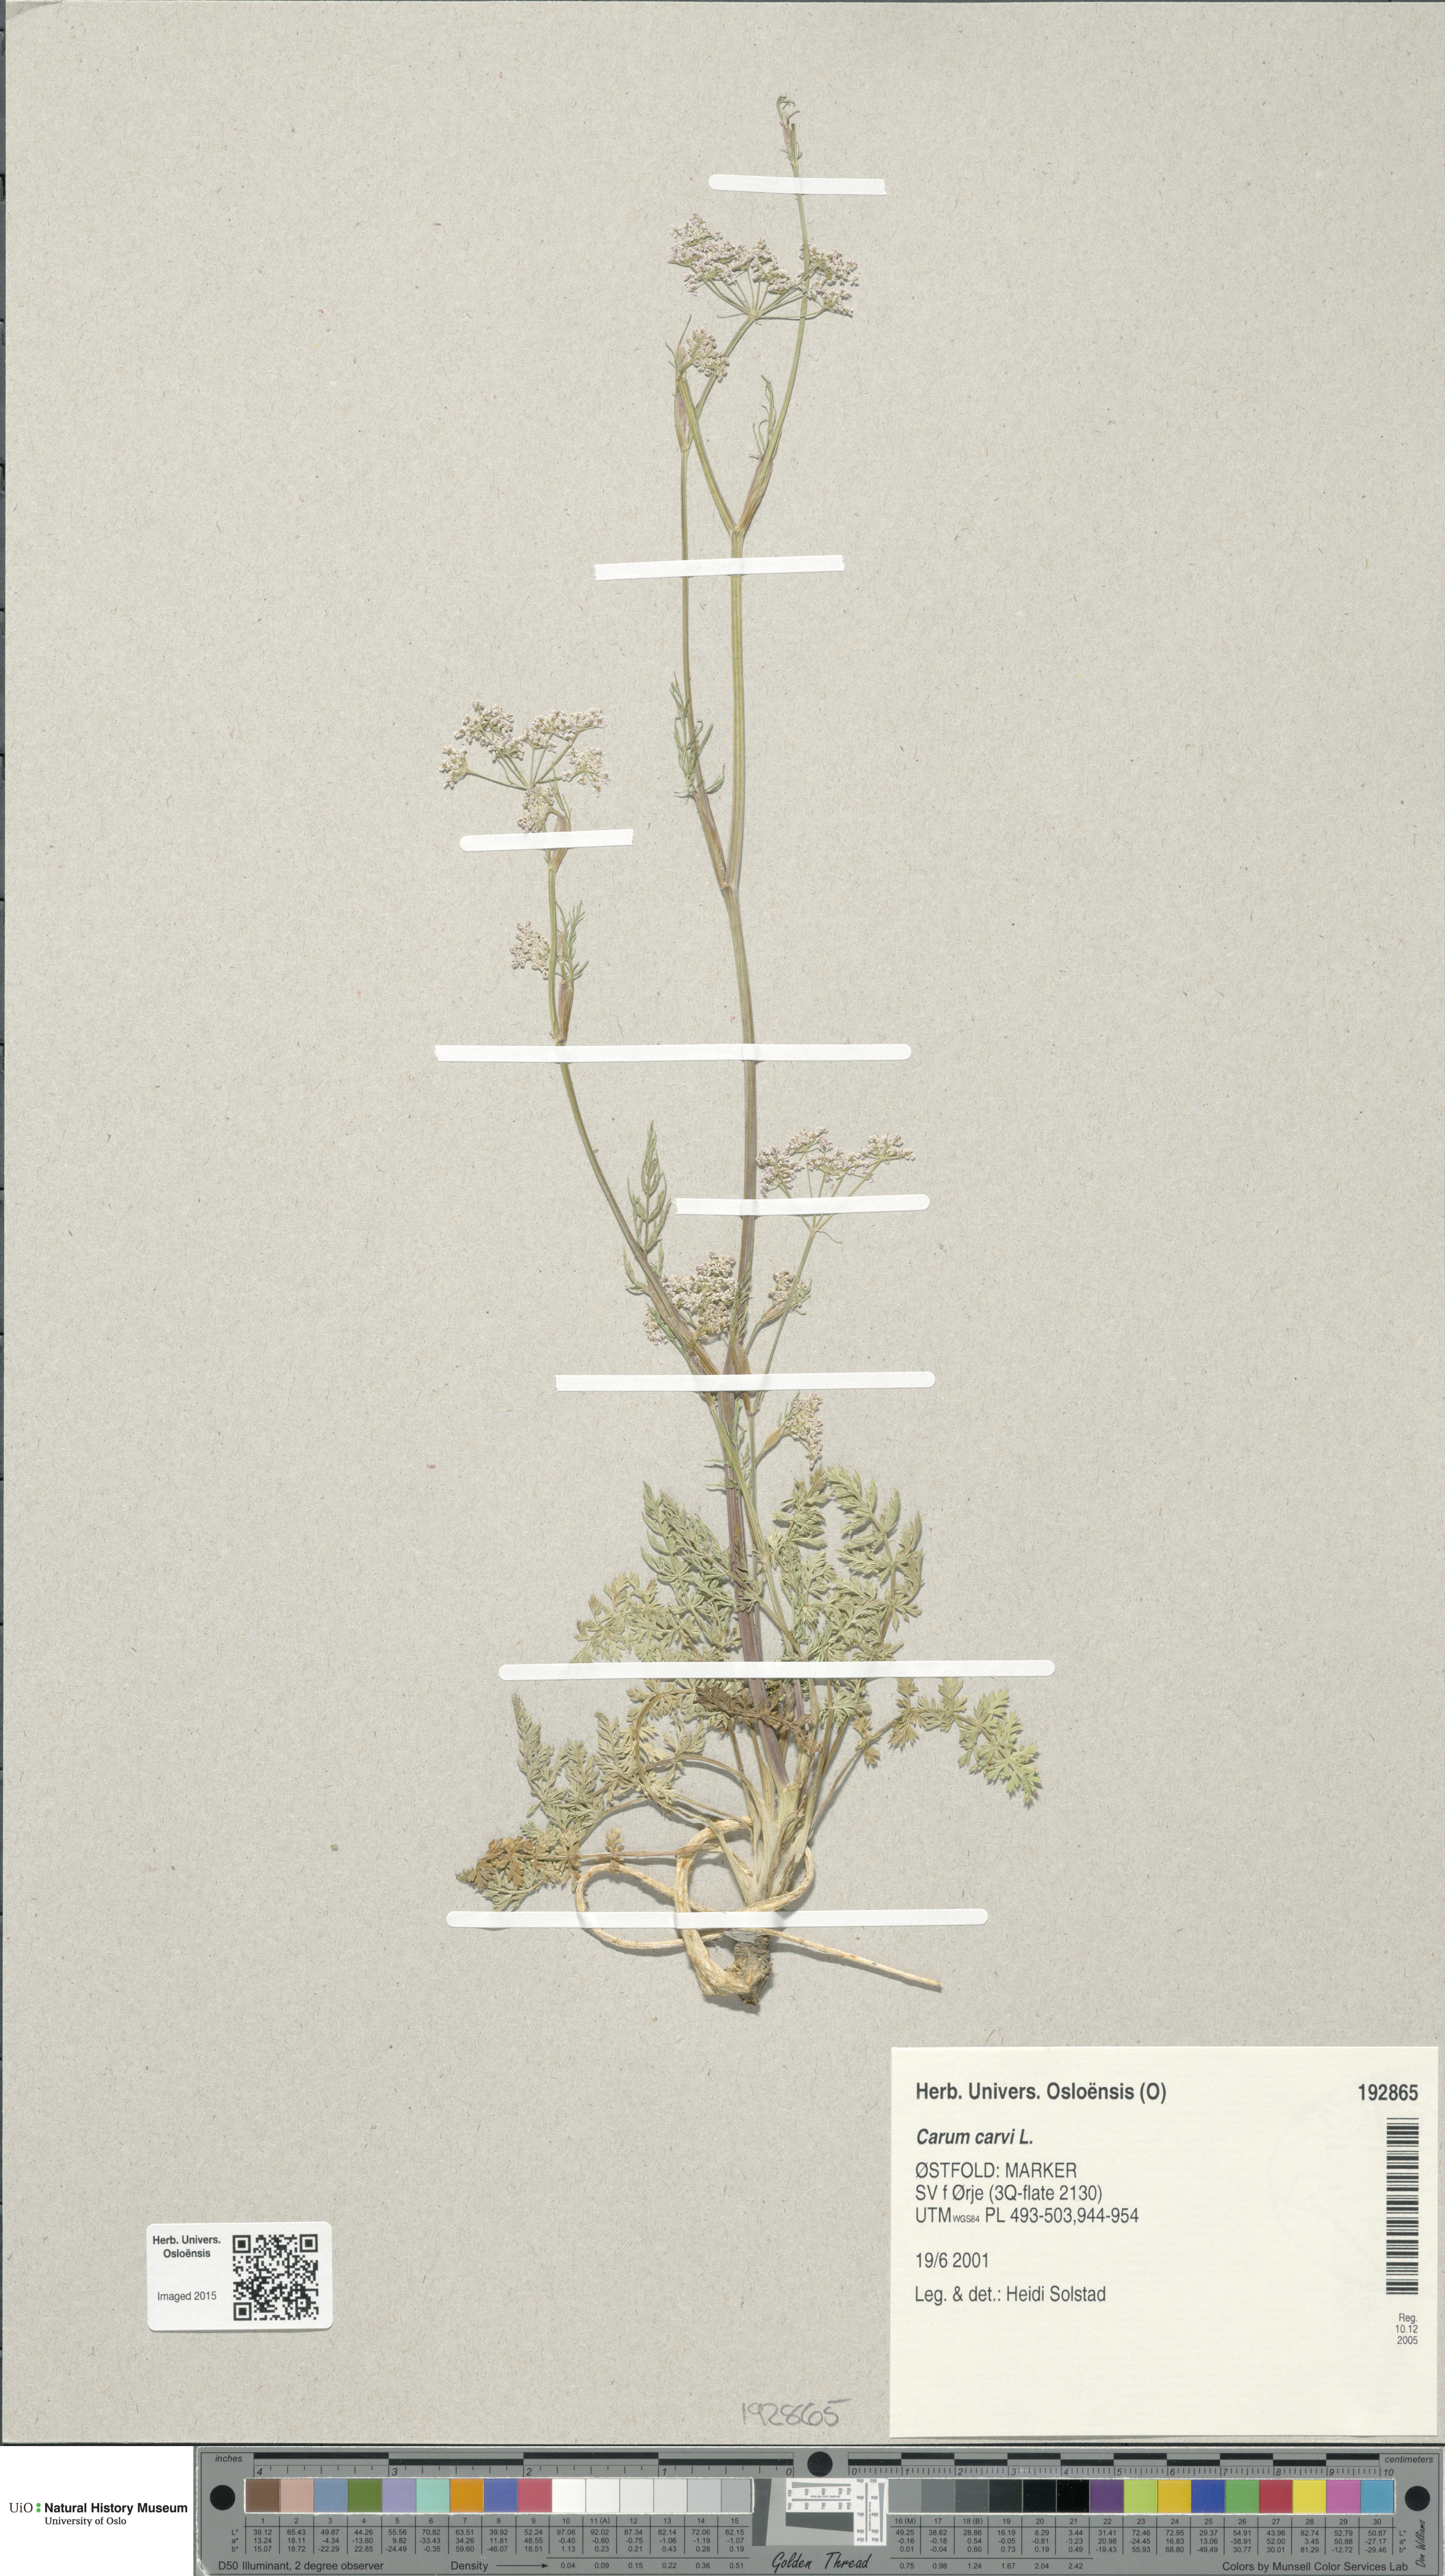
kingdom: Plantae
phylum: Tracheophyta
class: Magnoliopsida
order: Apiales
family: Apiaceae
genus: Carum
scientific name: Carum carvi
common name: Caraway
